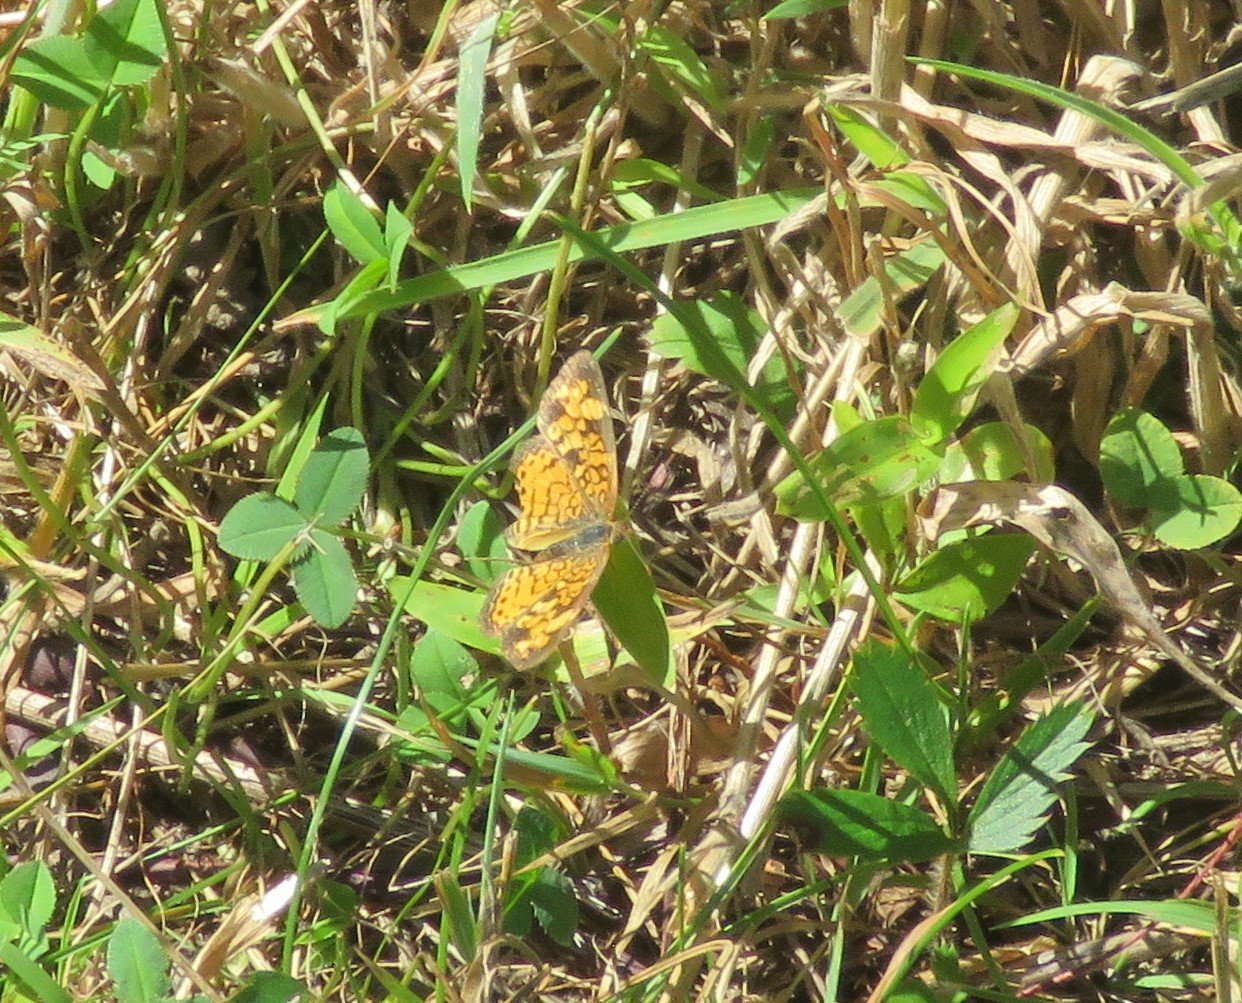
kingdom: Animalia
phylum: Arthropoda
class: Insecta
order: Lepidoptera
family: Nymphalidae
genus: Phyciodes
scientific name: Phyciodes tharos
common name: Pearl Crescent
